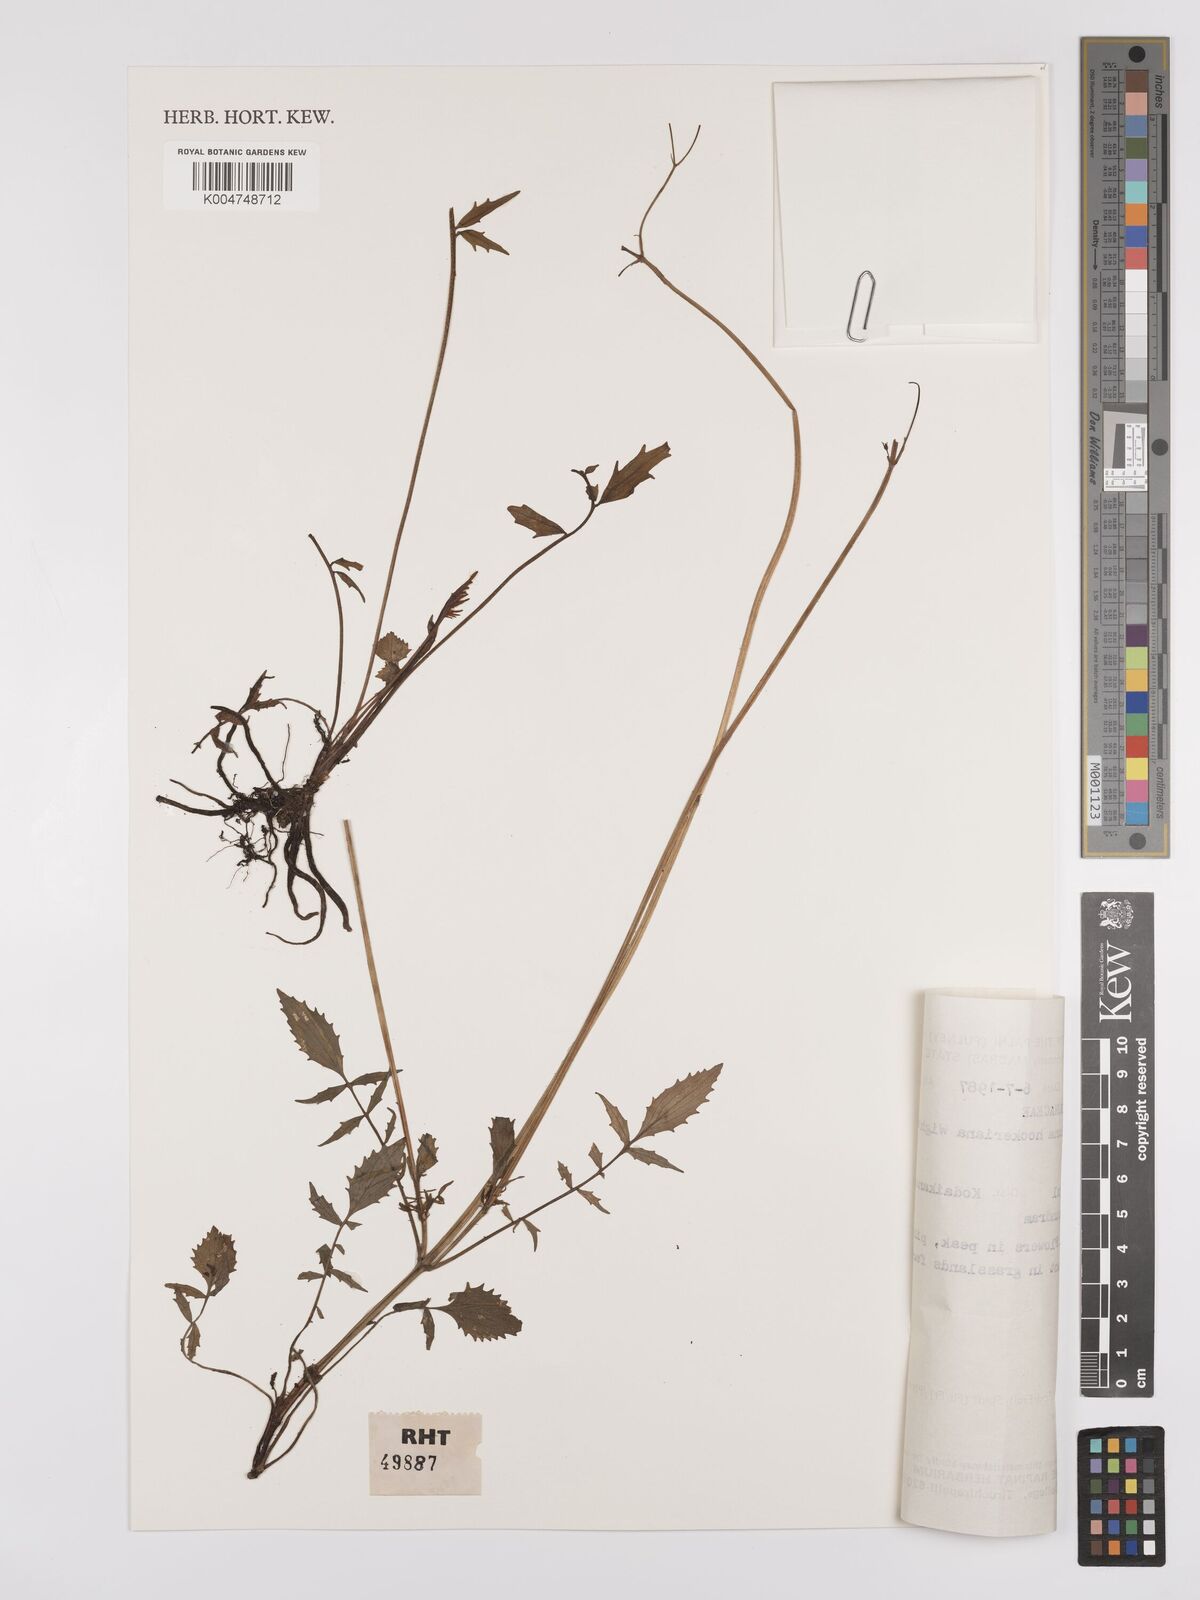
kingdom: Plantae
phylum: Tracheophyta
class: Magnoliopsida
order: Dipsacales
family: Caprifoliaceae
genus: Valeriana
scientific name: Valeriana hardwickei
